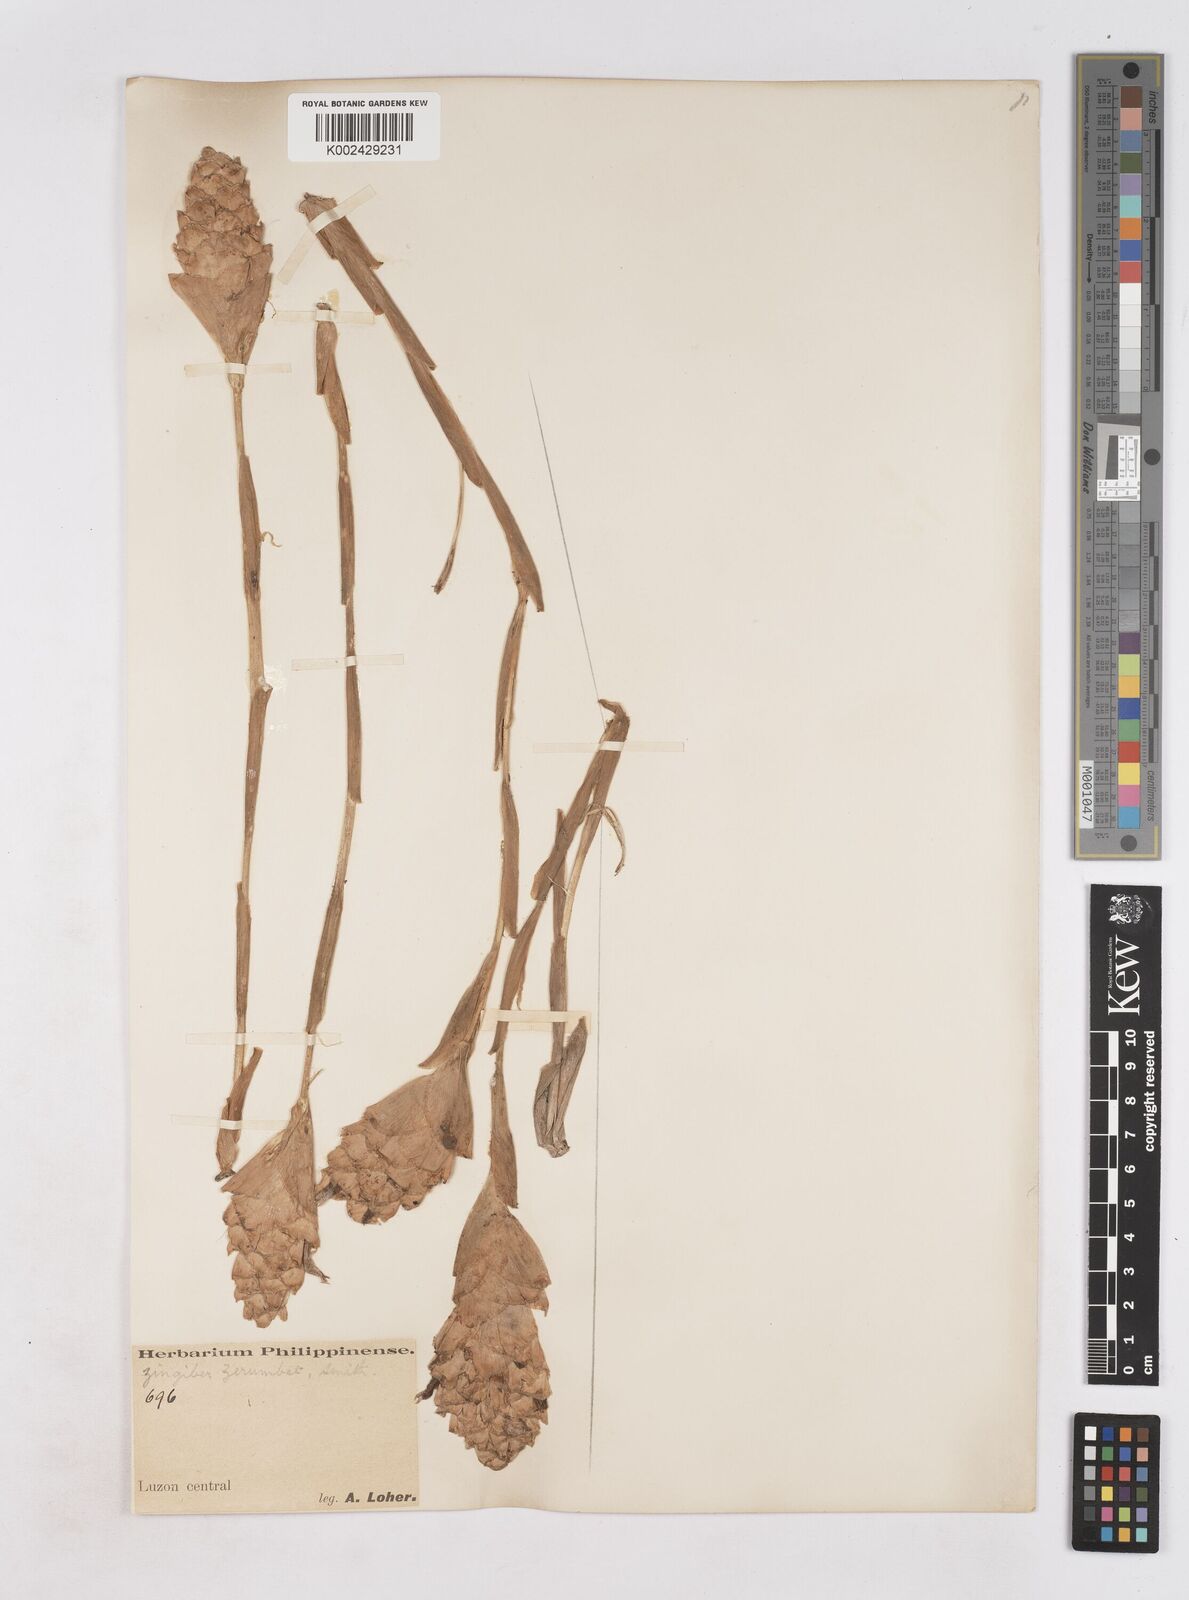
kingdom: Plantae
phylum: Tracheophyta
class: Liliopsida
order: Zingiberales
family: Zingiberaceae
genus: Zingiber
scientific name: Zingiber zerumbet
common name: Bitter ginger
